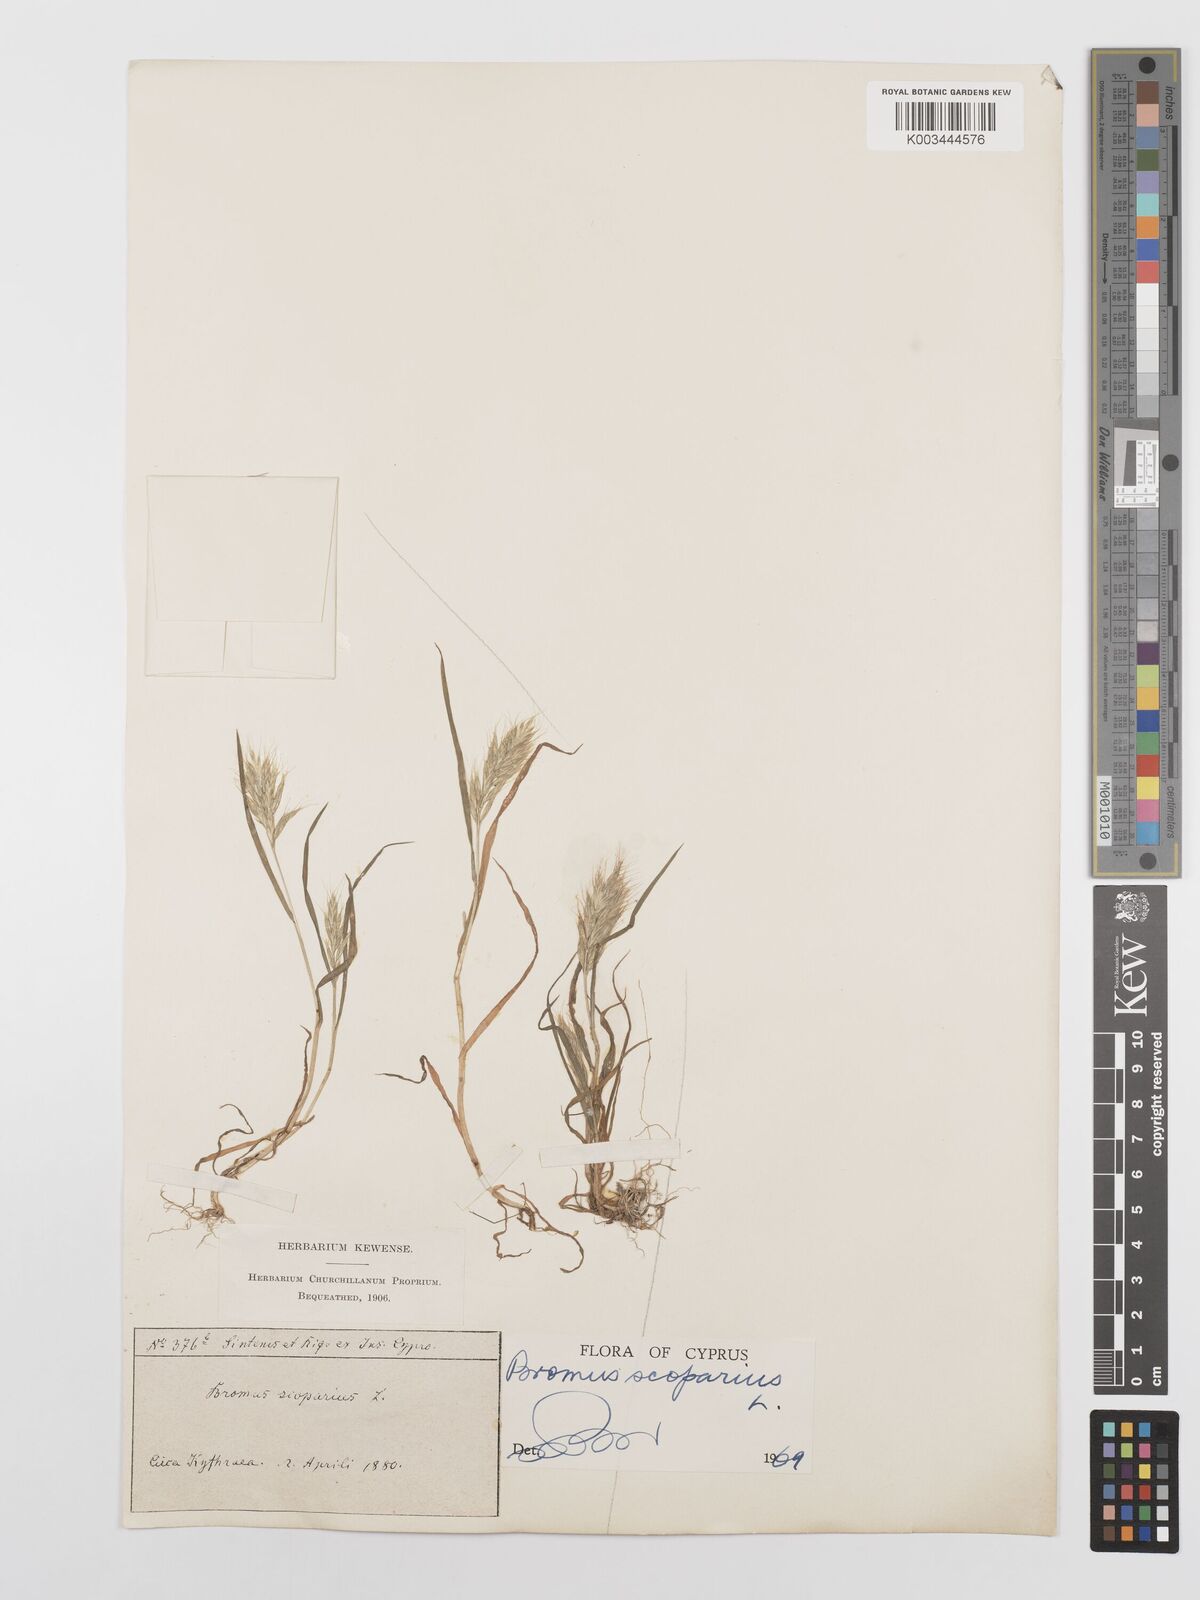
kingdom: Plantae
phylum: Tracheophyta
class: Liliopsida
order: Poales
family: Poaceae
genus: Bromus
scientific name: Bromus scoparius
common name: Broom brome
